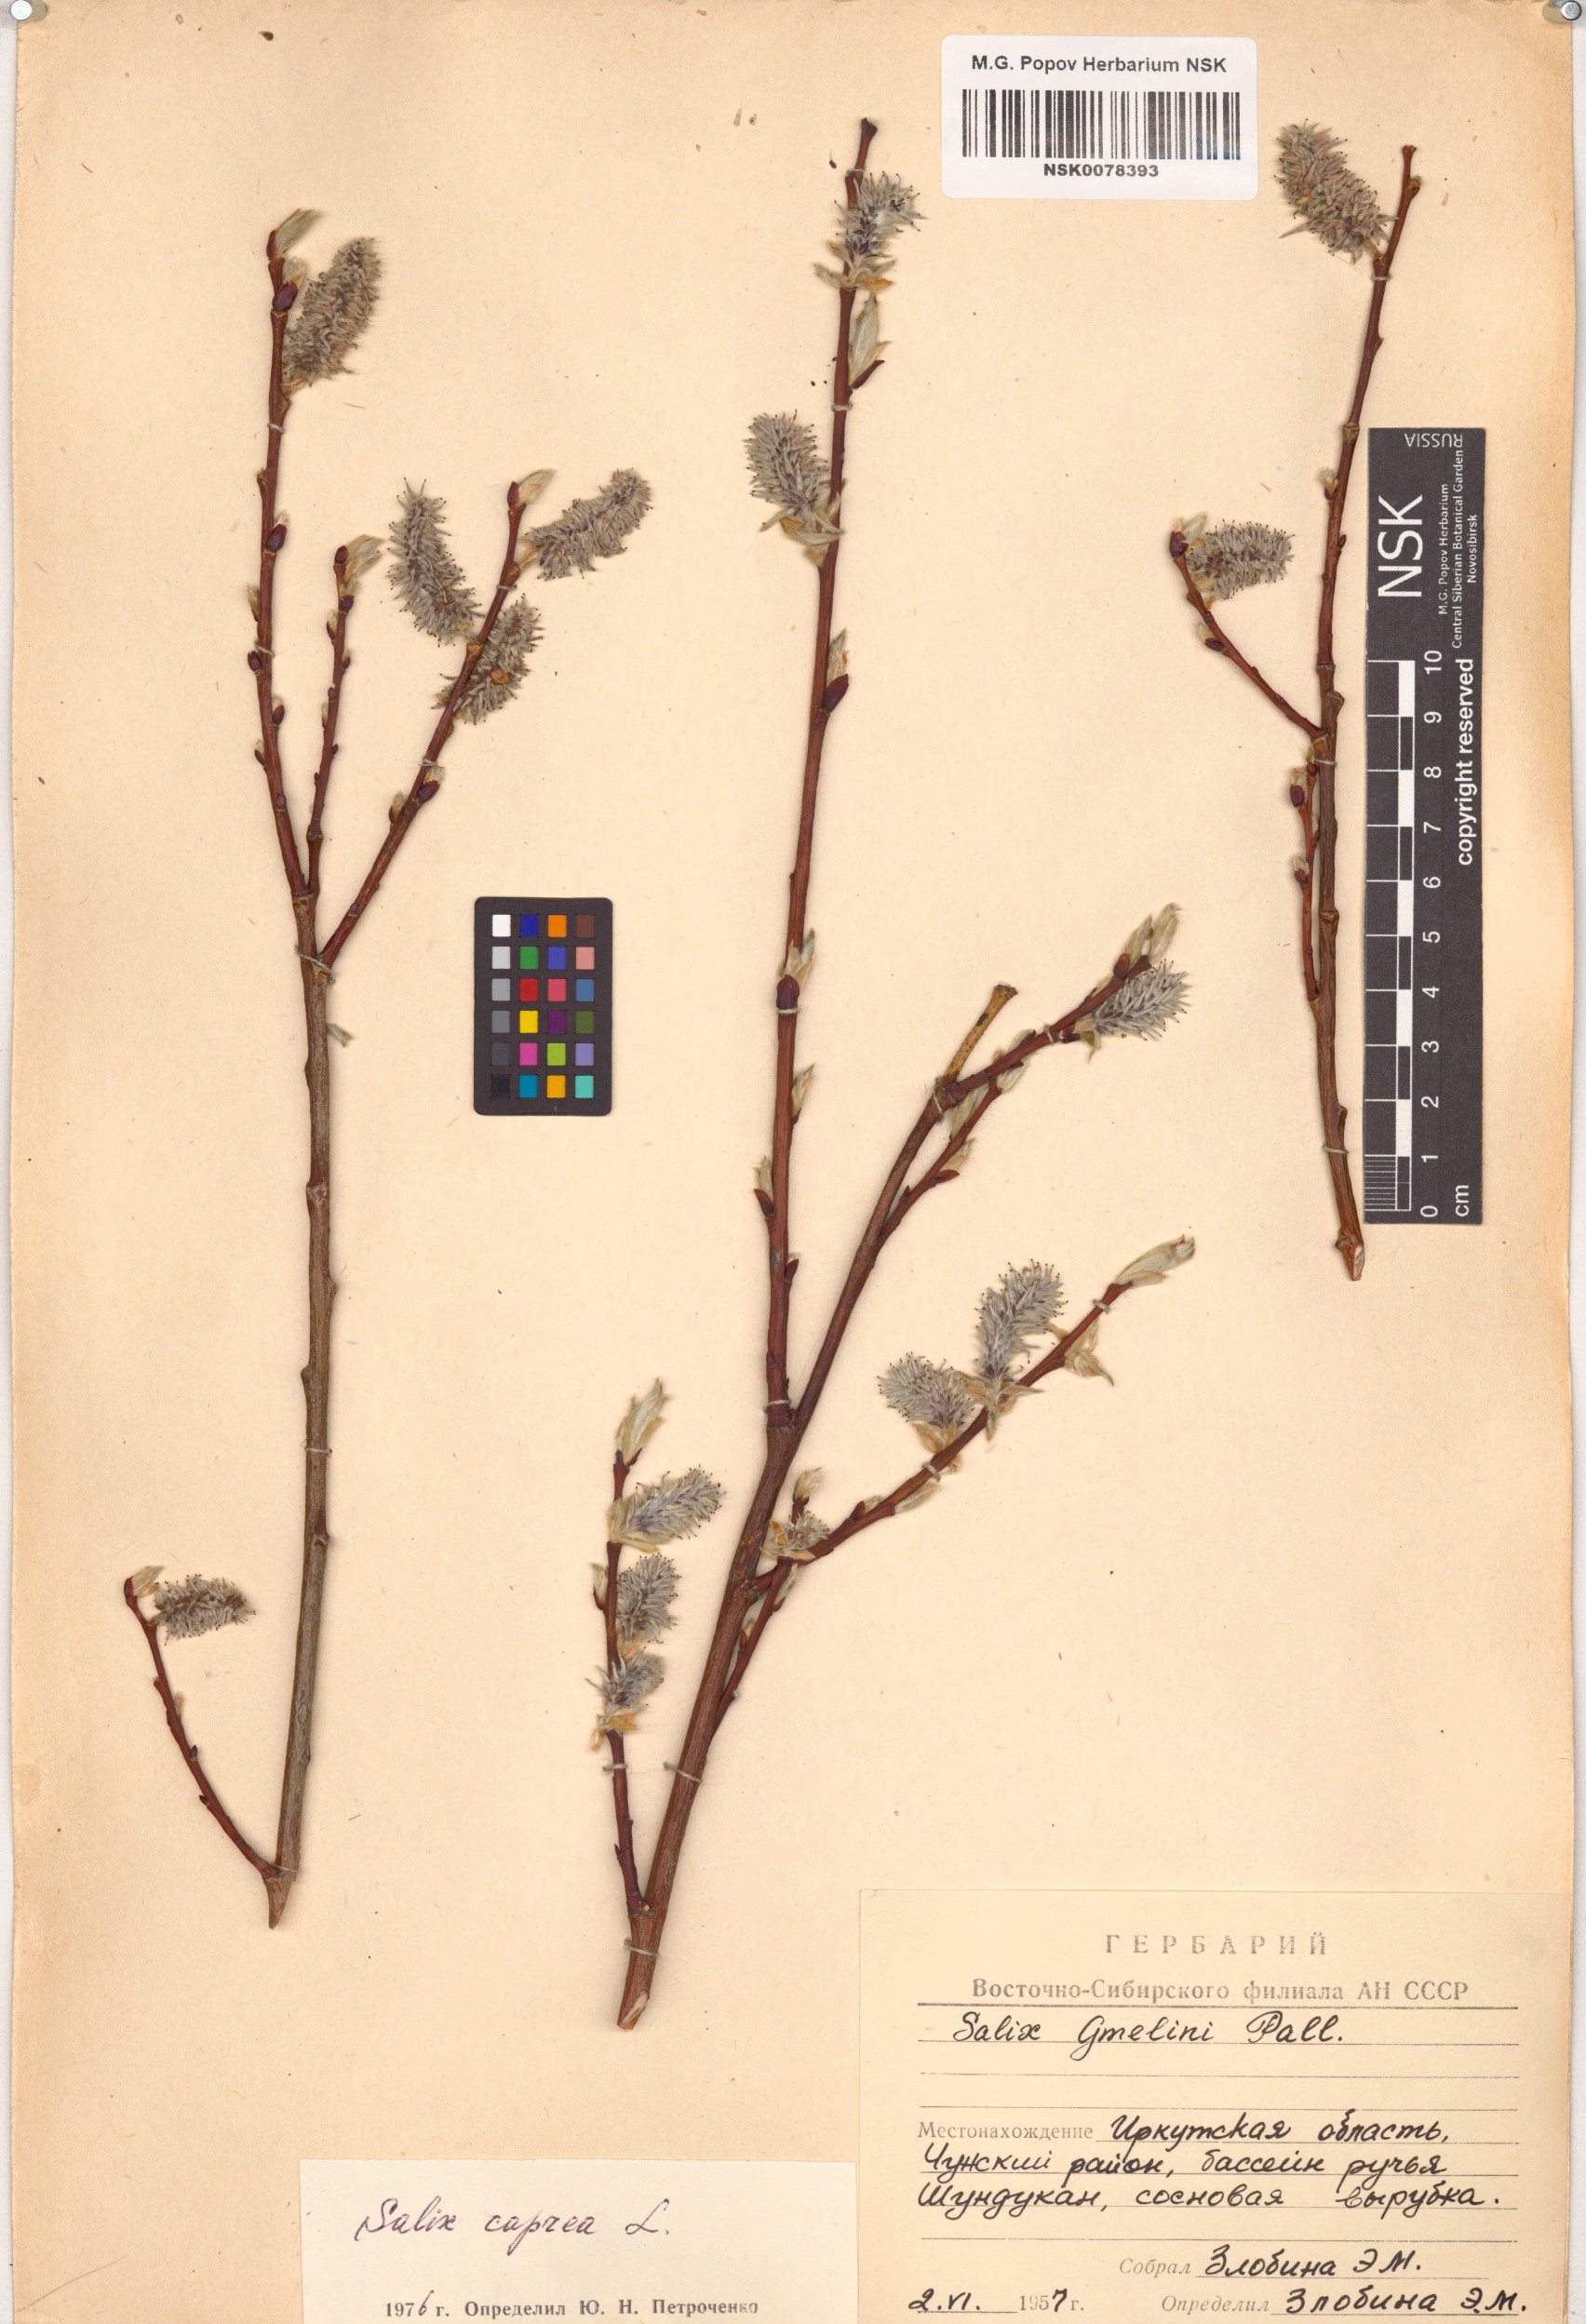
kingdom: Plantae
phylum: Tracheophyta
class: Magnoliopsida
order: Malpighiales
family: Salicaceae
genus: Salix
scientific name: Salix caprea
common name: Goat willow
